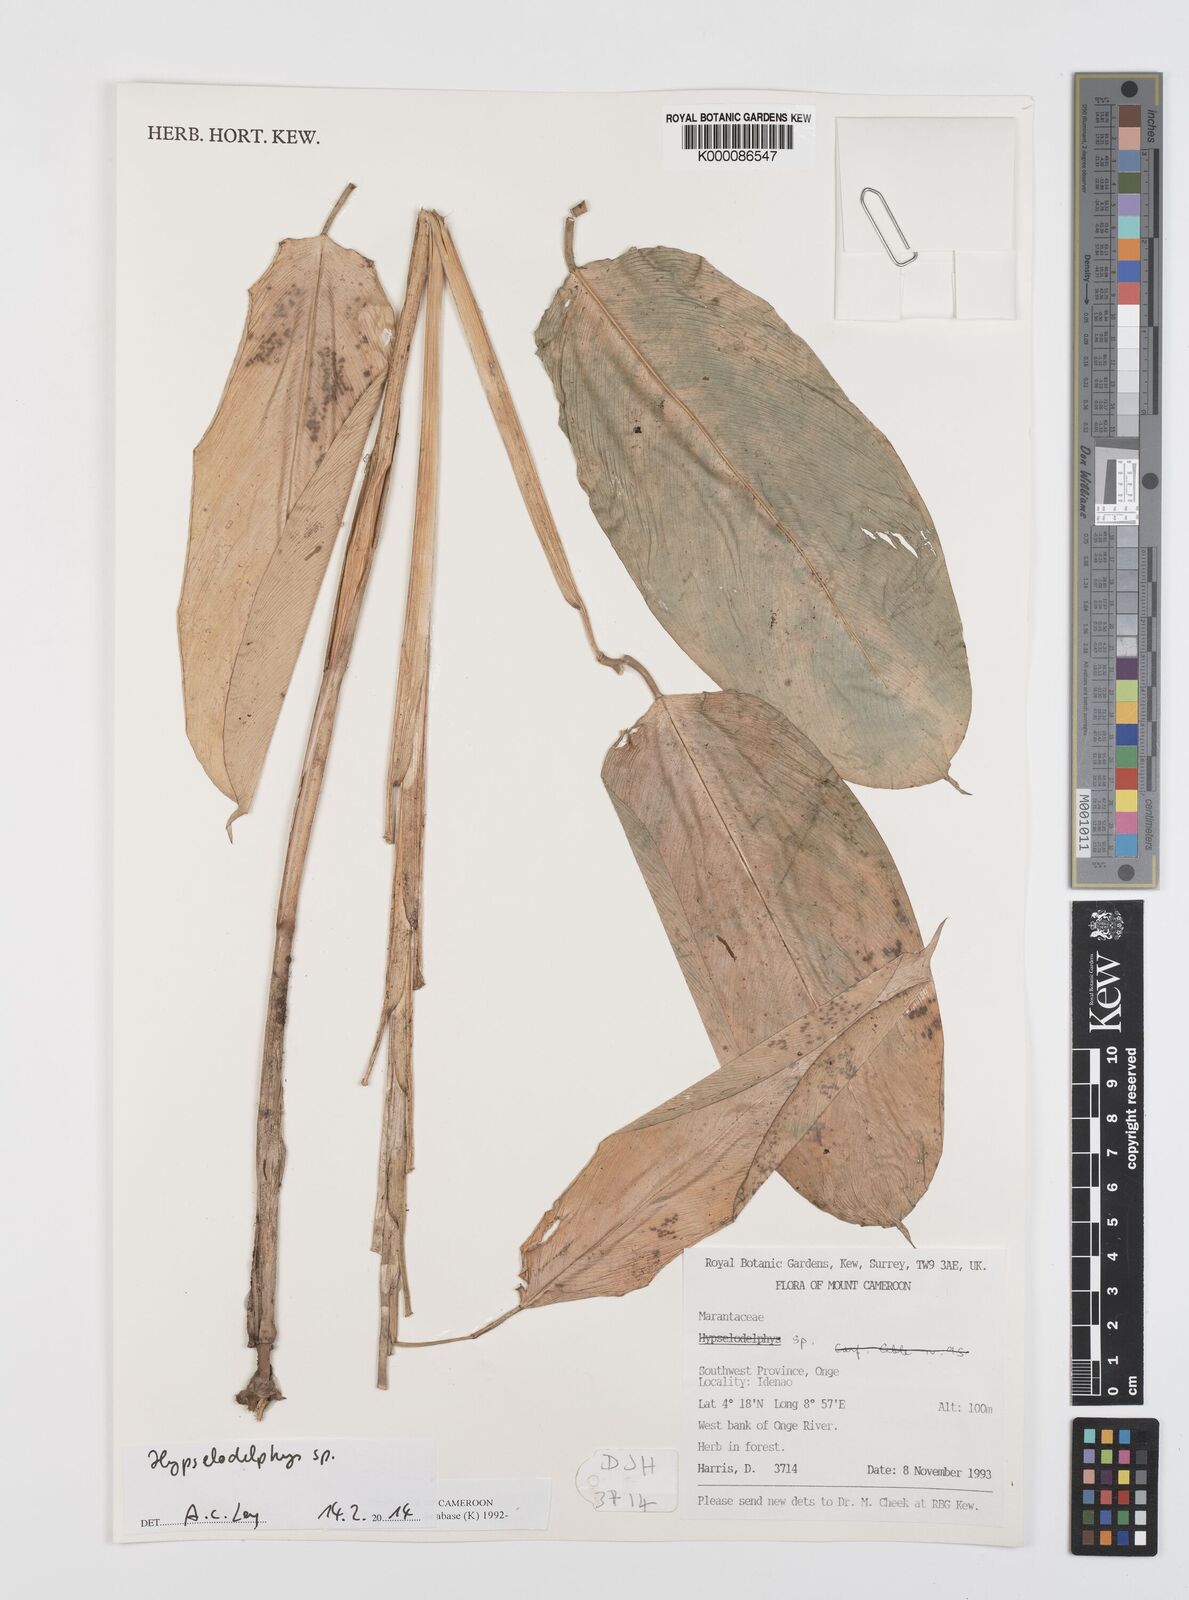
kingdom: Plantae
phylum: Tracheophyta
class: Liliopsida
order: Zingiberales
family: Marantaceae
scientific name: Marantaceae
